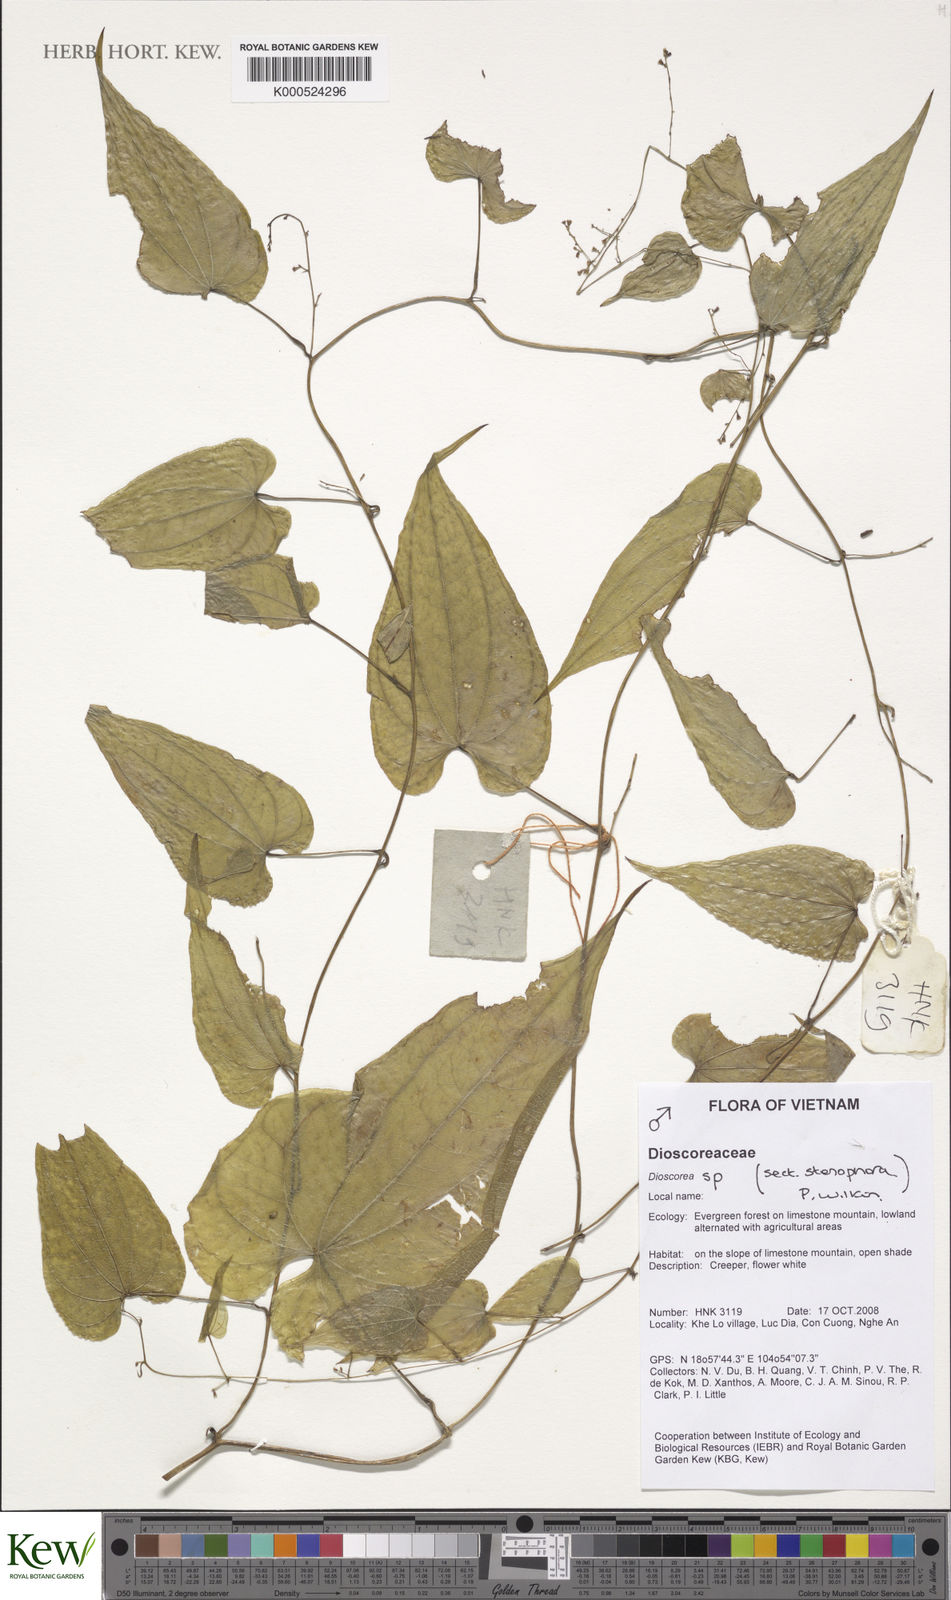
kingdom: Plantae
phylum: Tracheophyta
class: Liliopsida
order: Dioscoreales
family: Dioscoreaceae
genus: Dioscorea
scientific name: Dioscorea
